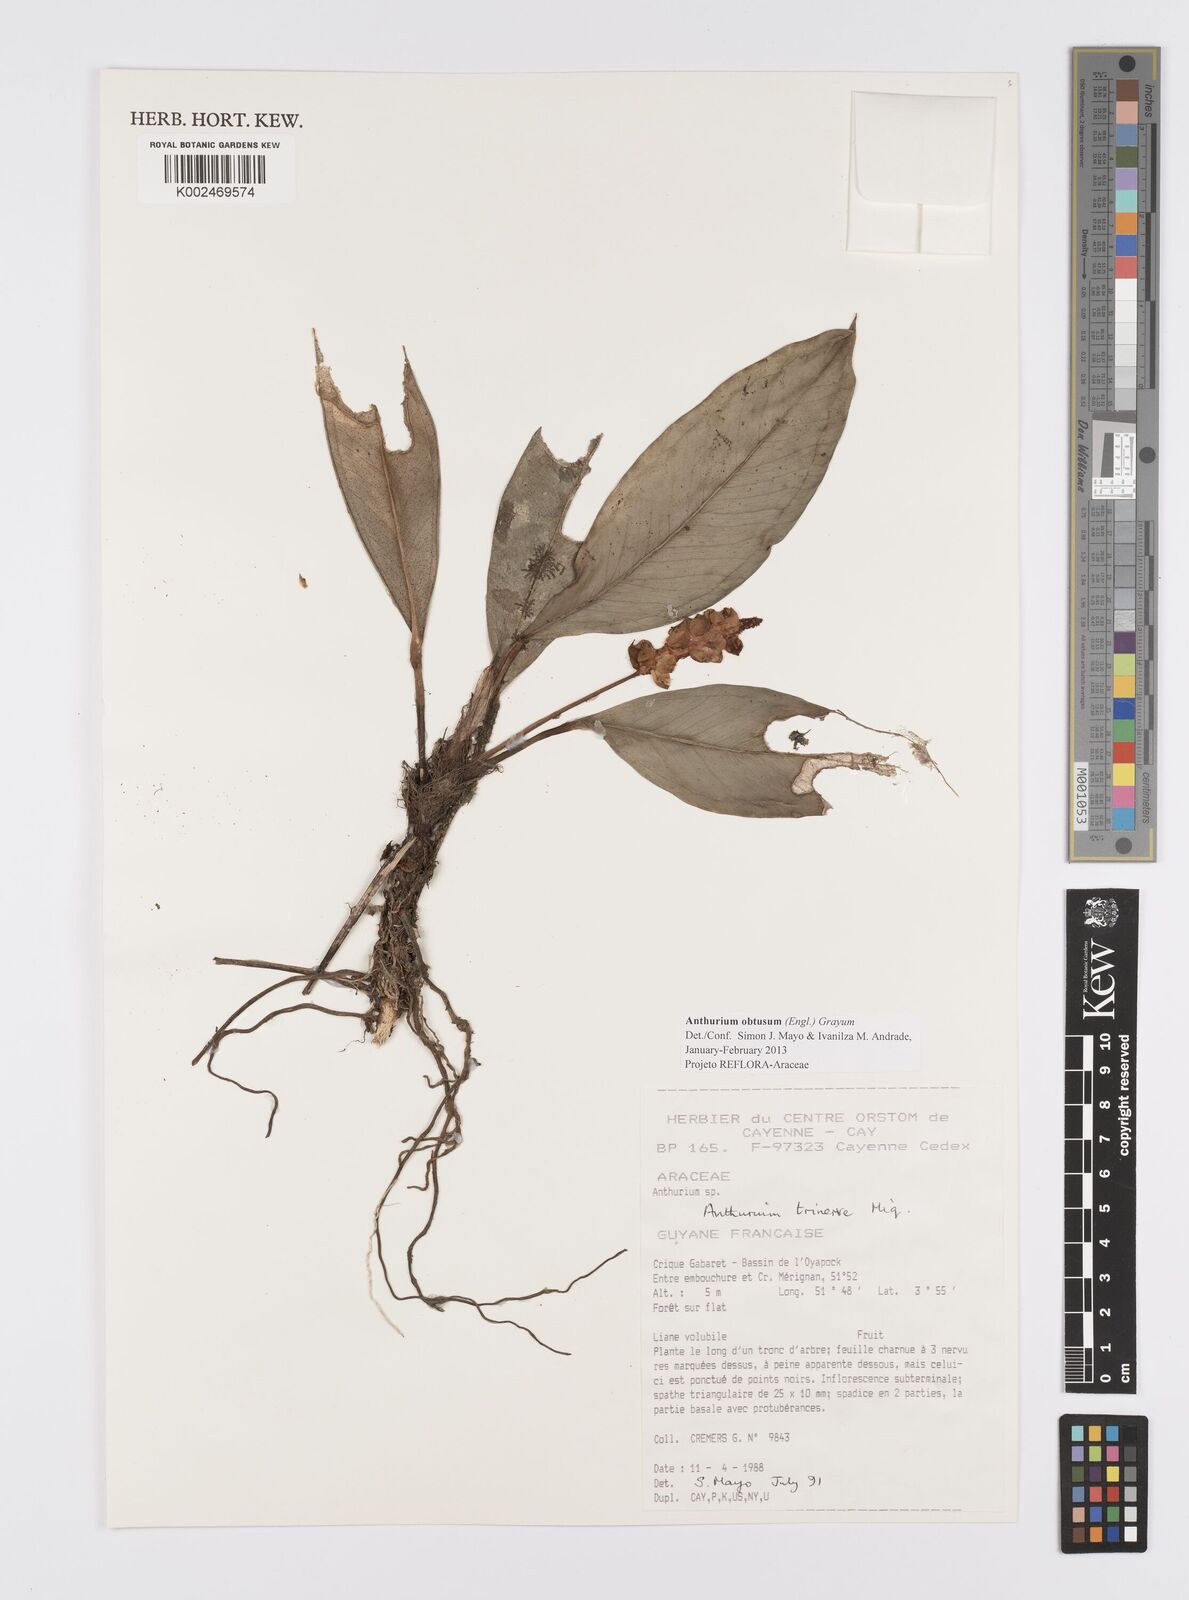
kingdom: Plantae
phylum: Tracheophyta
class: Liliopsida
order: Alismatales
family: Araceae
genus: Anthurium
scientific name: Anthurium obtusum
